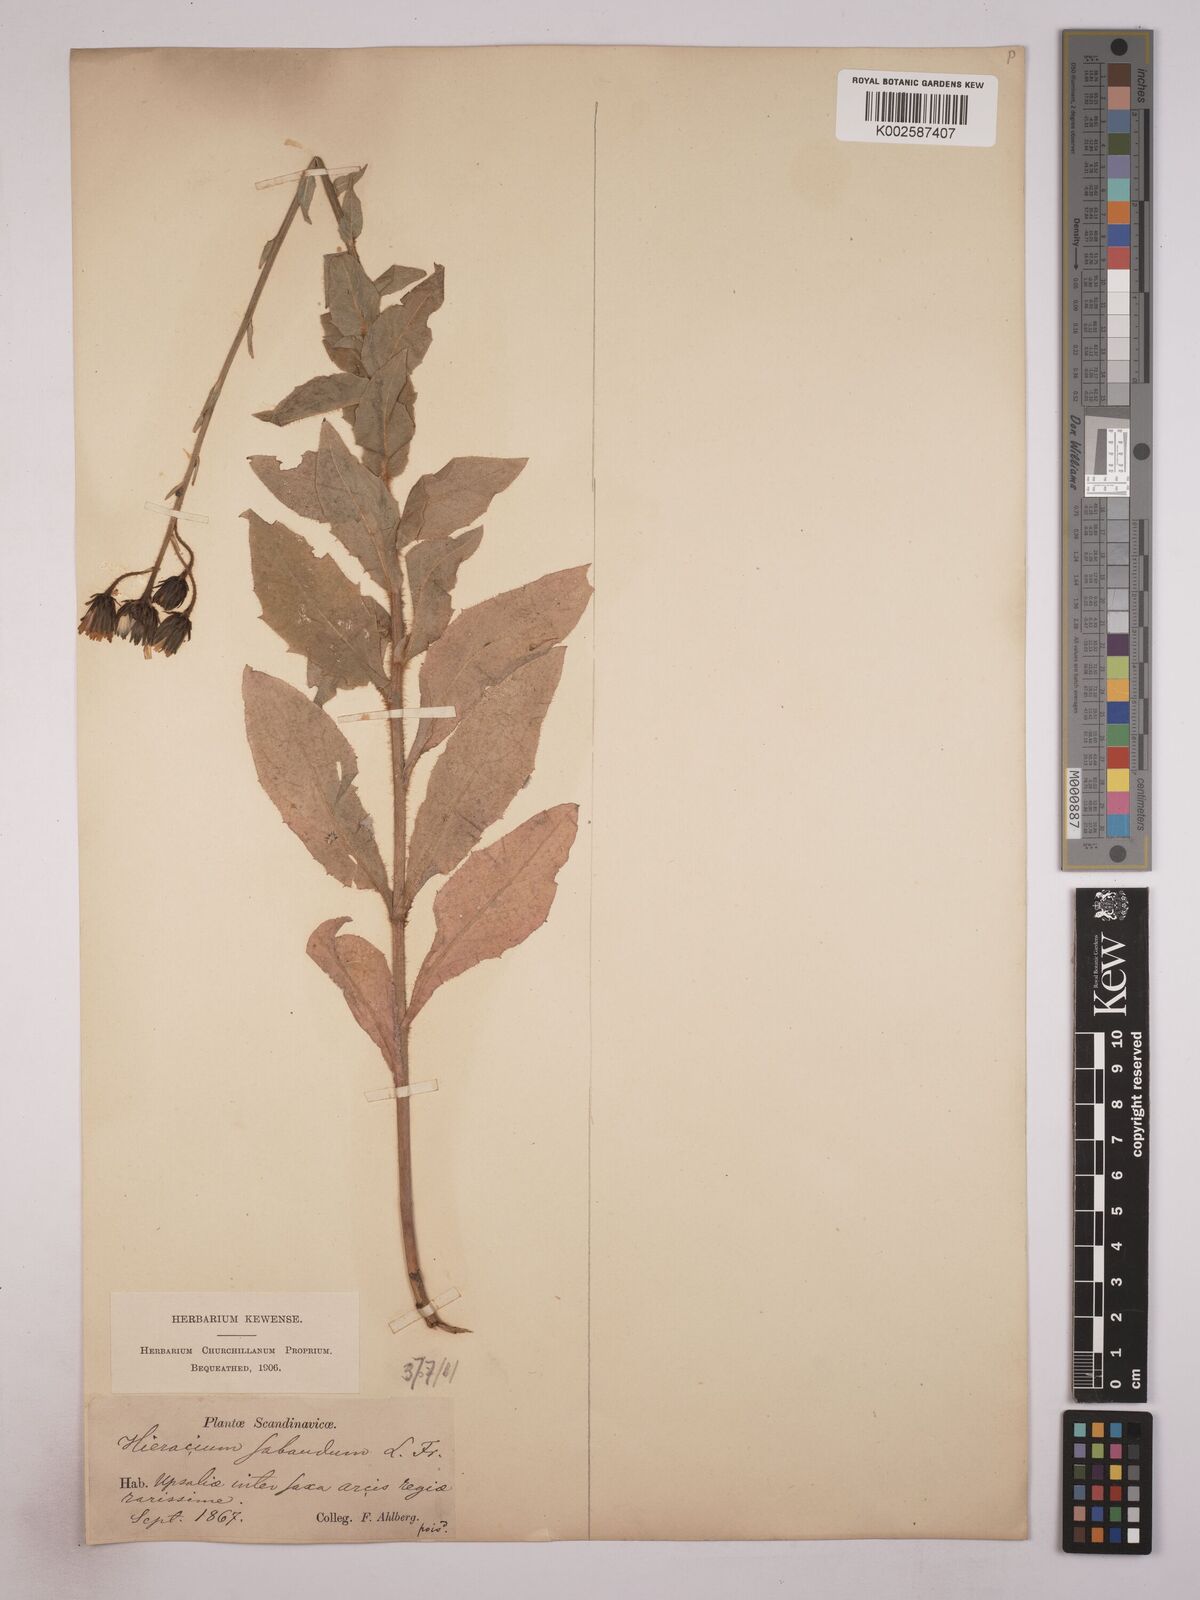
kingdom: Plantae
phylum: Tracheophyta
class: Magnoliopsida
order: Asterales
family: Asteraceae
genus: Hieracium
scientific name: Hieracium subaudum
